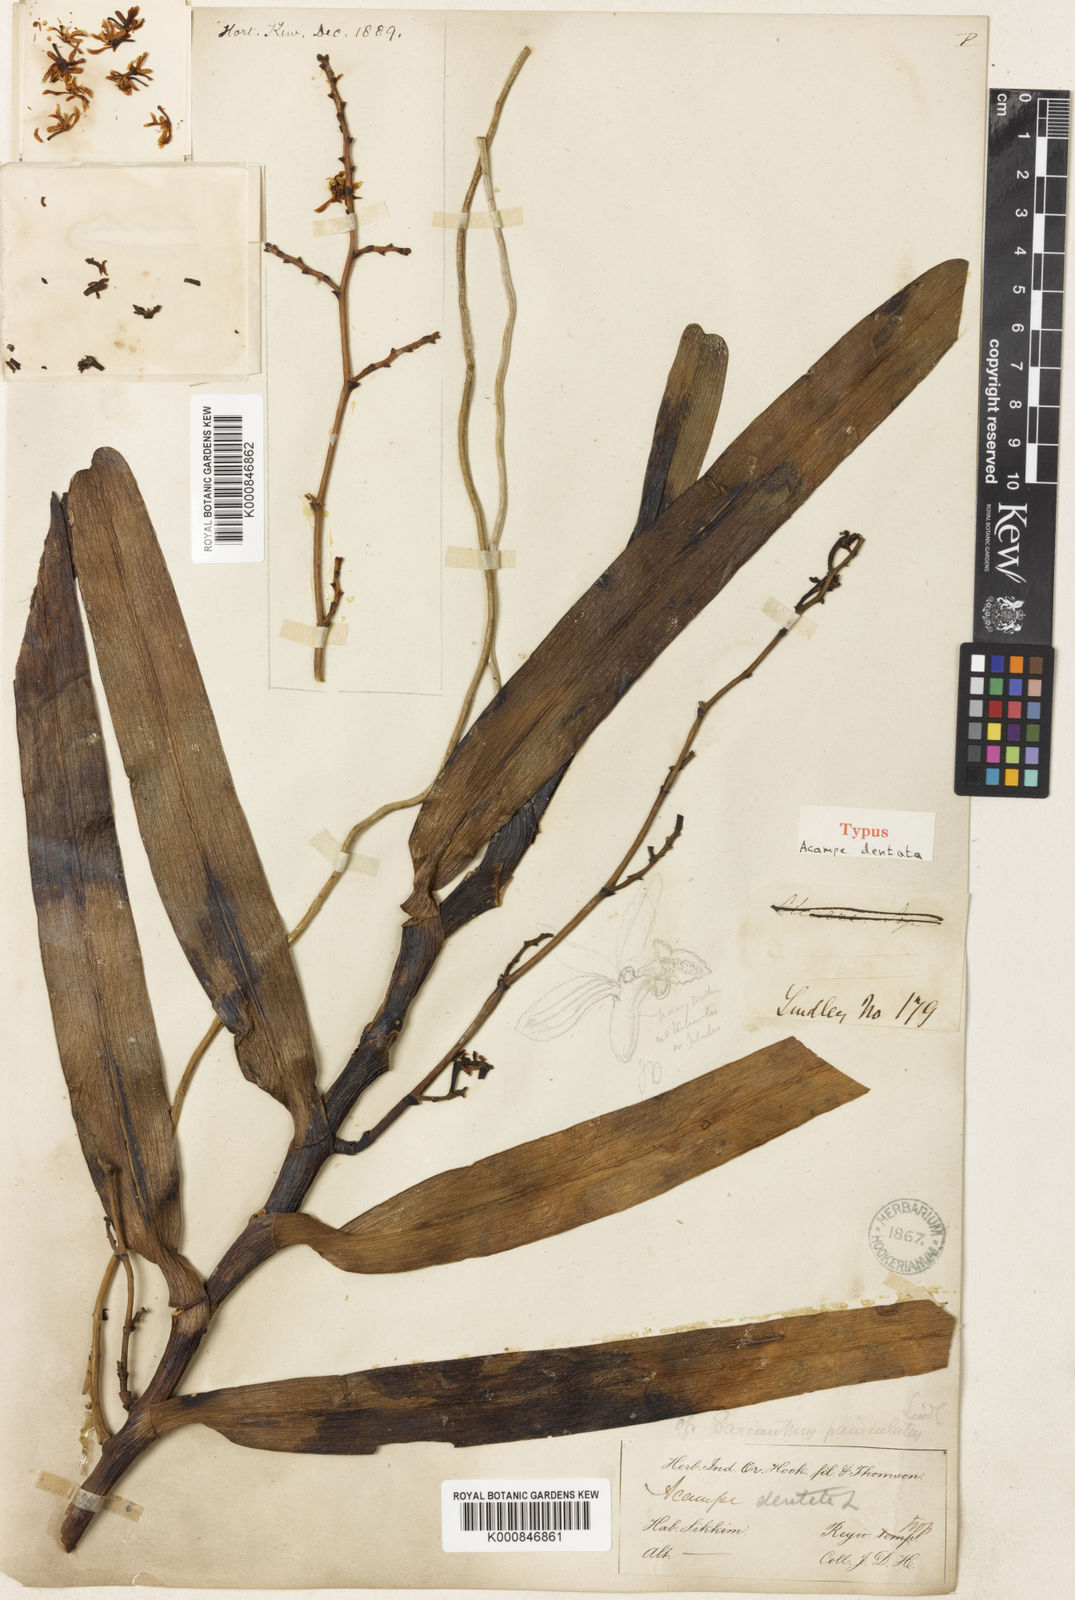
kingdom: Plantae
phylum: Tracheophyta
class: Liliopsida
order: Asparagales
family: Orchidaceae
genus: Acampe
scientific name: Acampe ochracea
